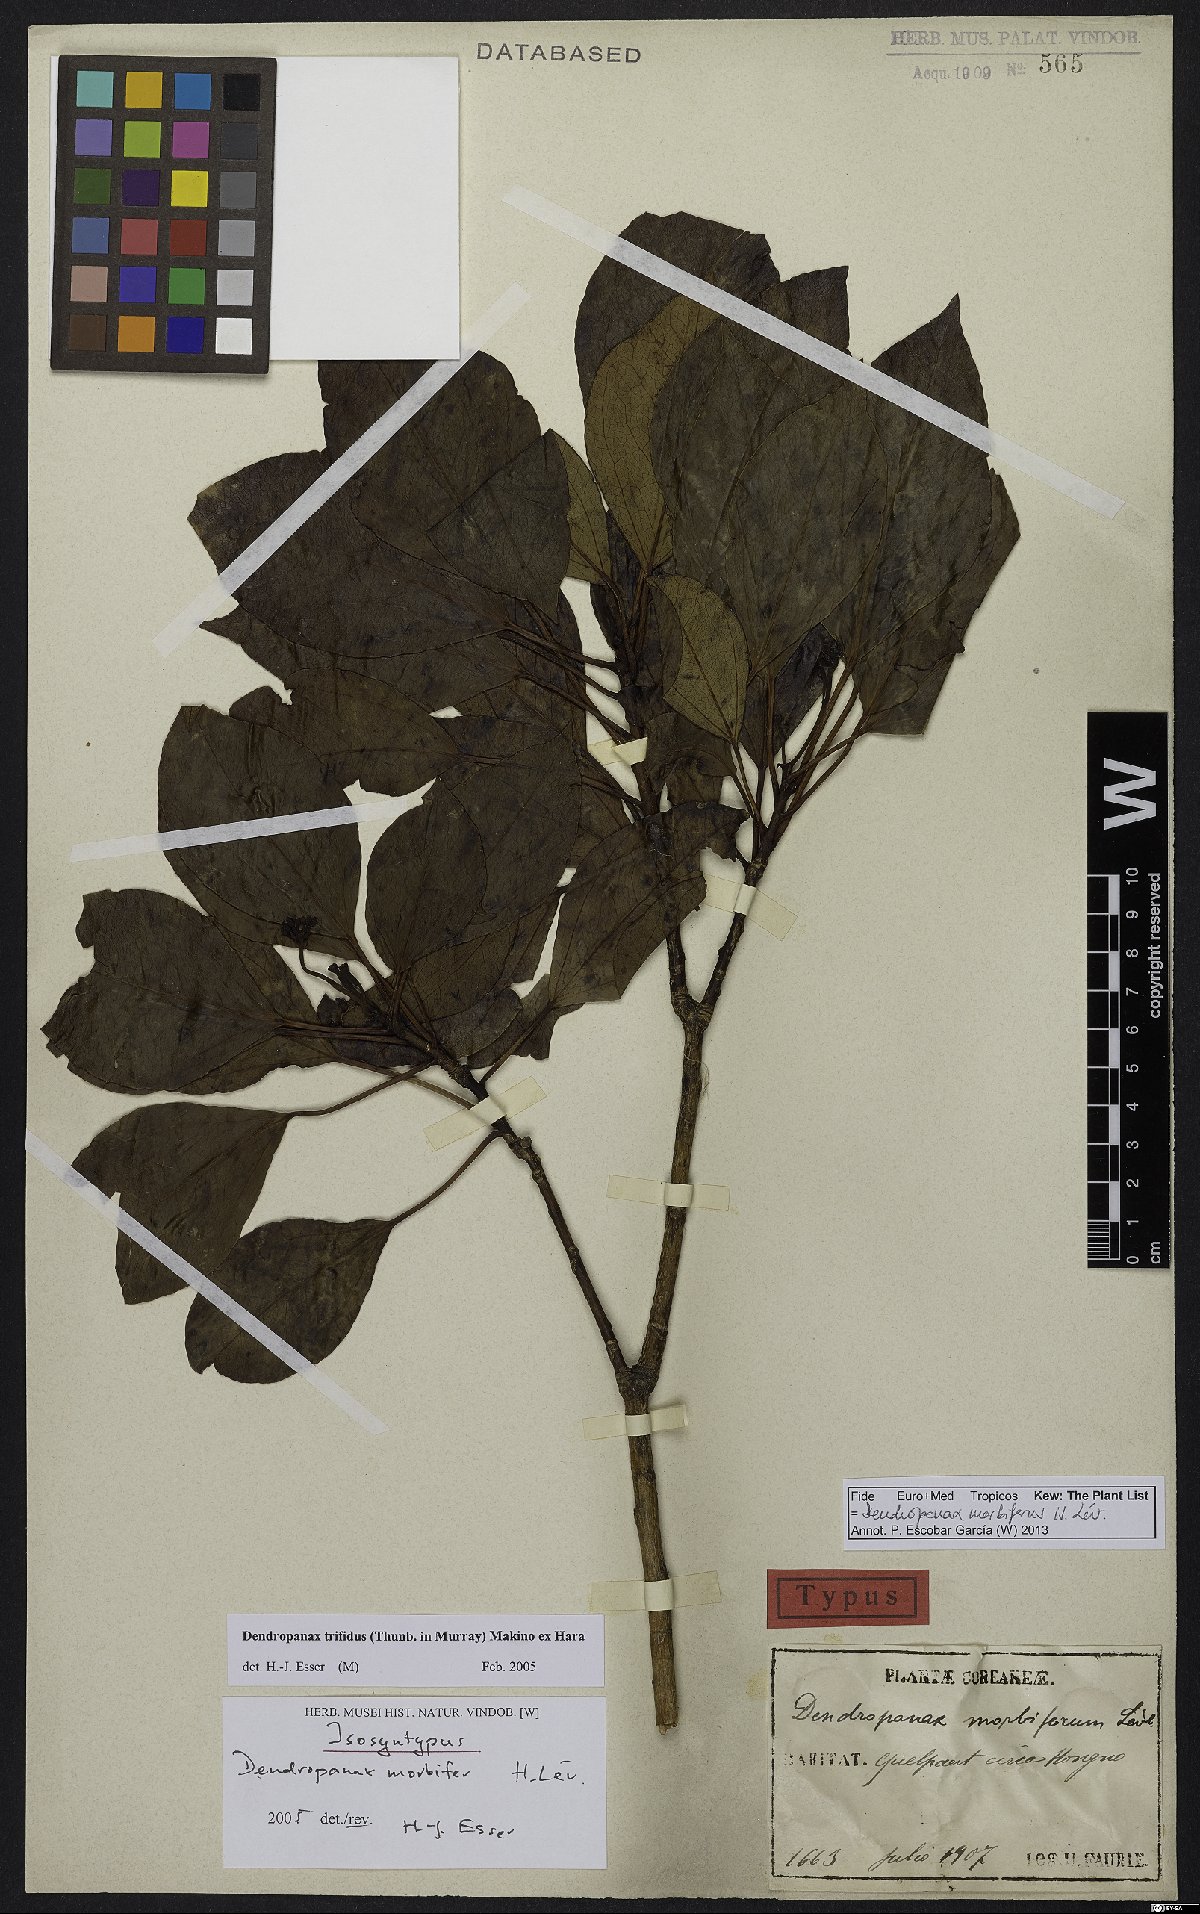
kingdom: Plantae
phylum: Tracheophyta
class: Magnoliopsida
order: Apiales
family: Araliaceae
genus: Dendropanax
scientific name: Dendropanax morbiferus
